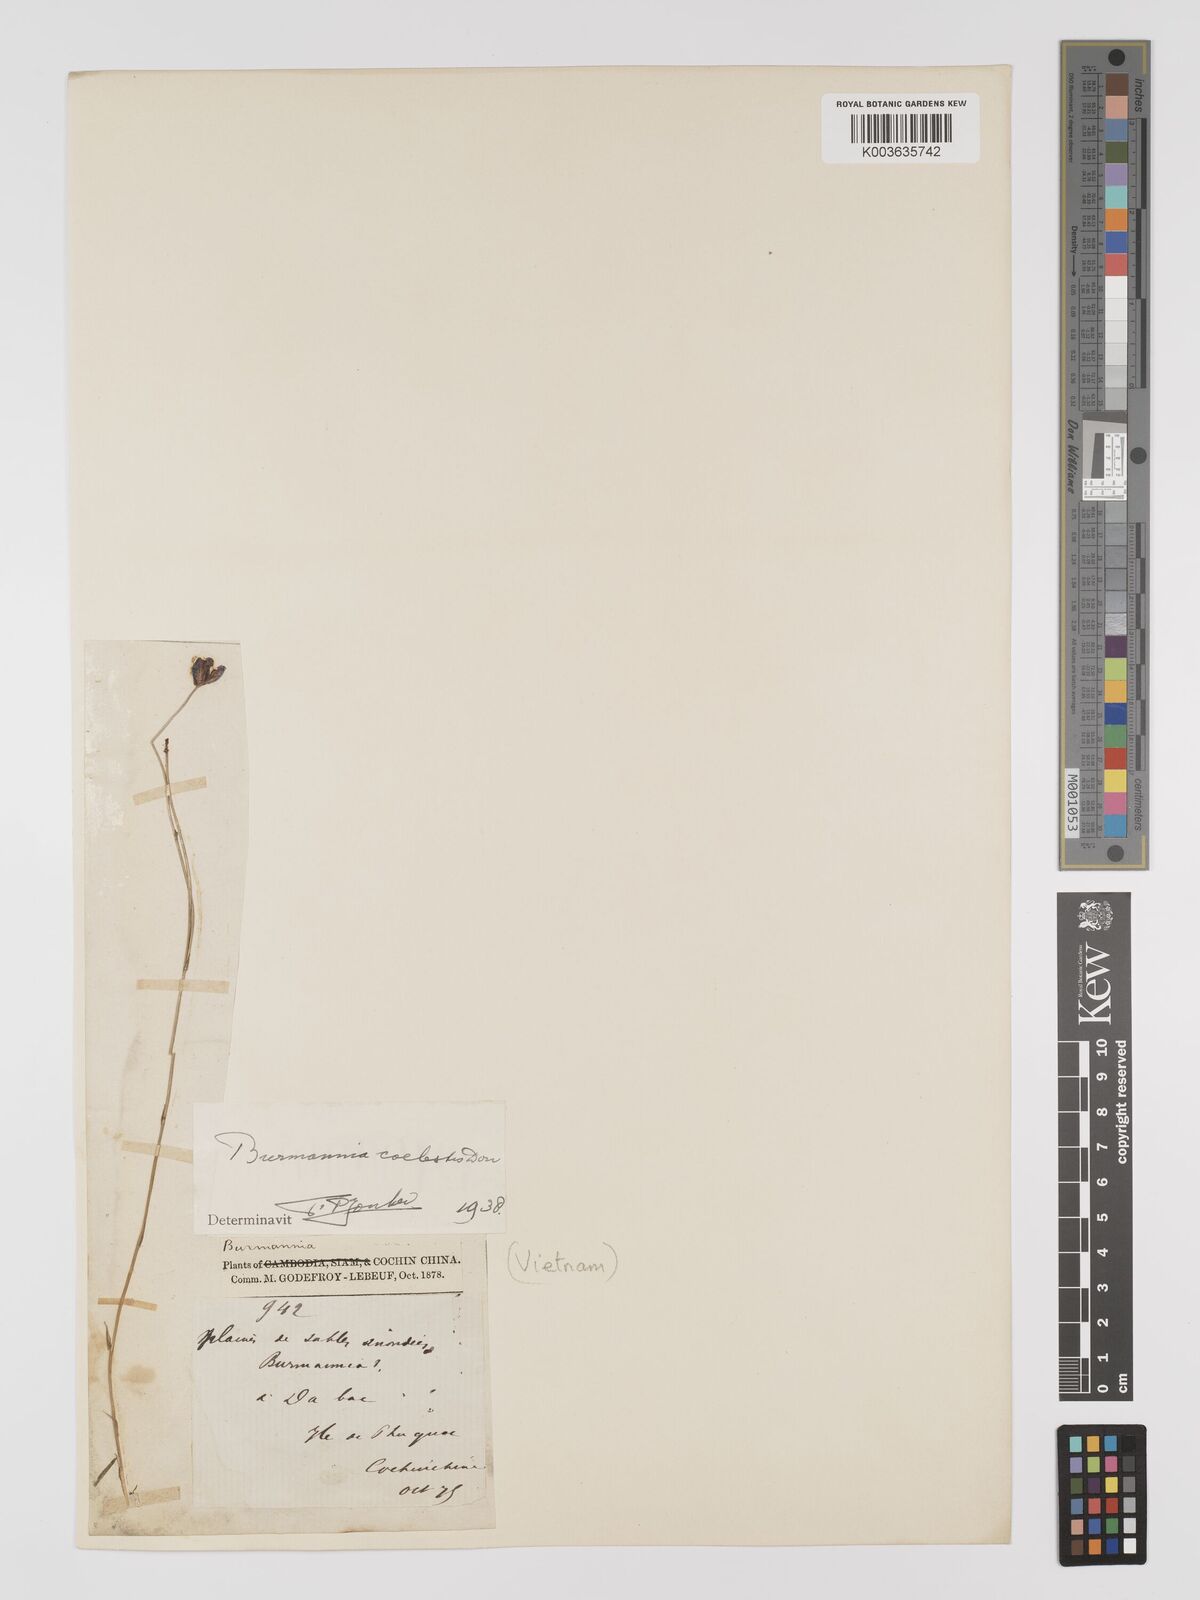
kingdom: Plantae
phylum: Tracheophyta
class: Liliopsida
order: Dioscoreales
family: Burmanniaceae
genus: Burmannia
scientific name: Burmannia coelestis
